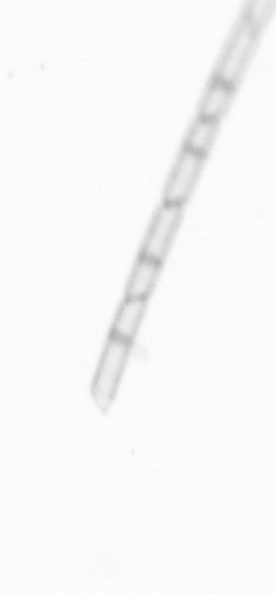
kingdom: Chromista
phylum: Ochrophyta
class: Bacillariophyceae
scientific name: Bacillariophyceae
